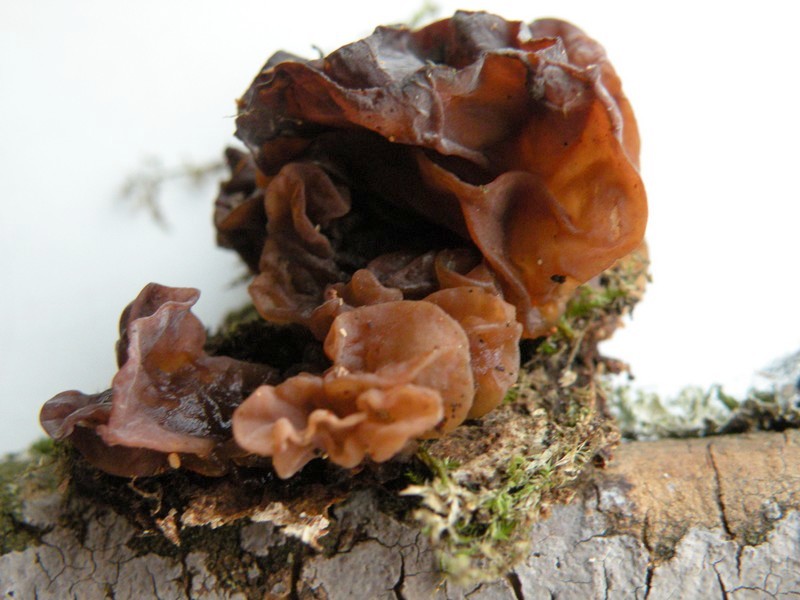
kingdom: Fungi
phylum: Basidiomycota
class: Tremellomycetes
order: Tremellales
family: Tremellaceae
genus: Phaeotremella
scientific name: Phaeotremella frondosa
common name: kæmpe-bævresvamp
